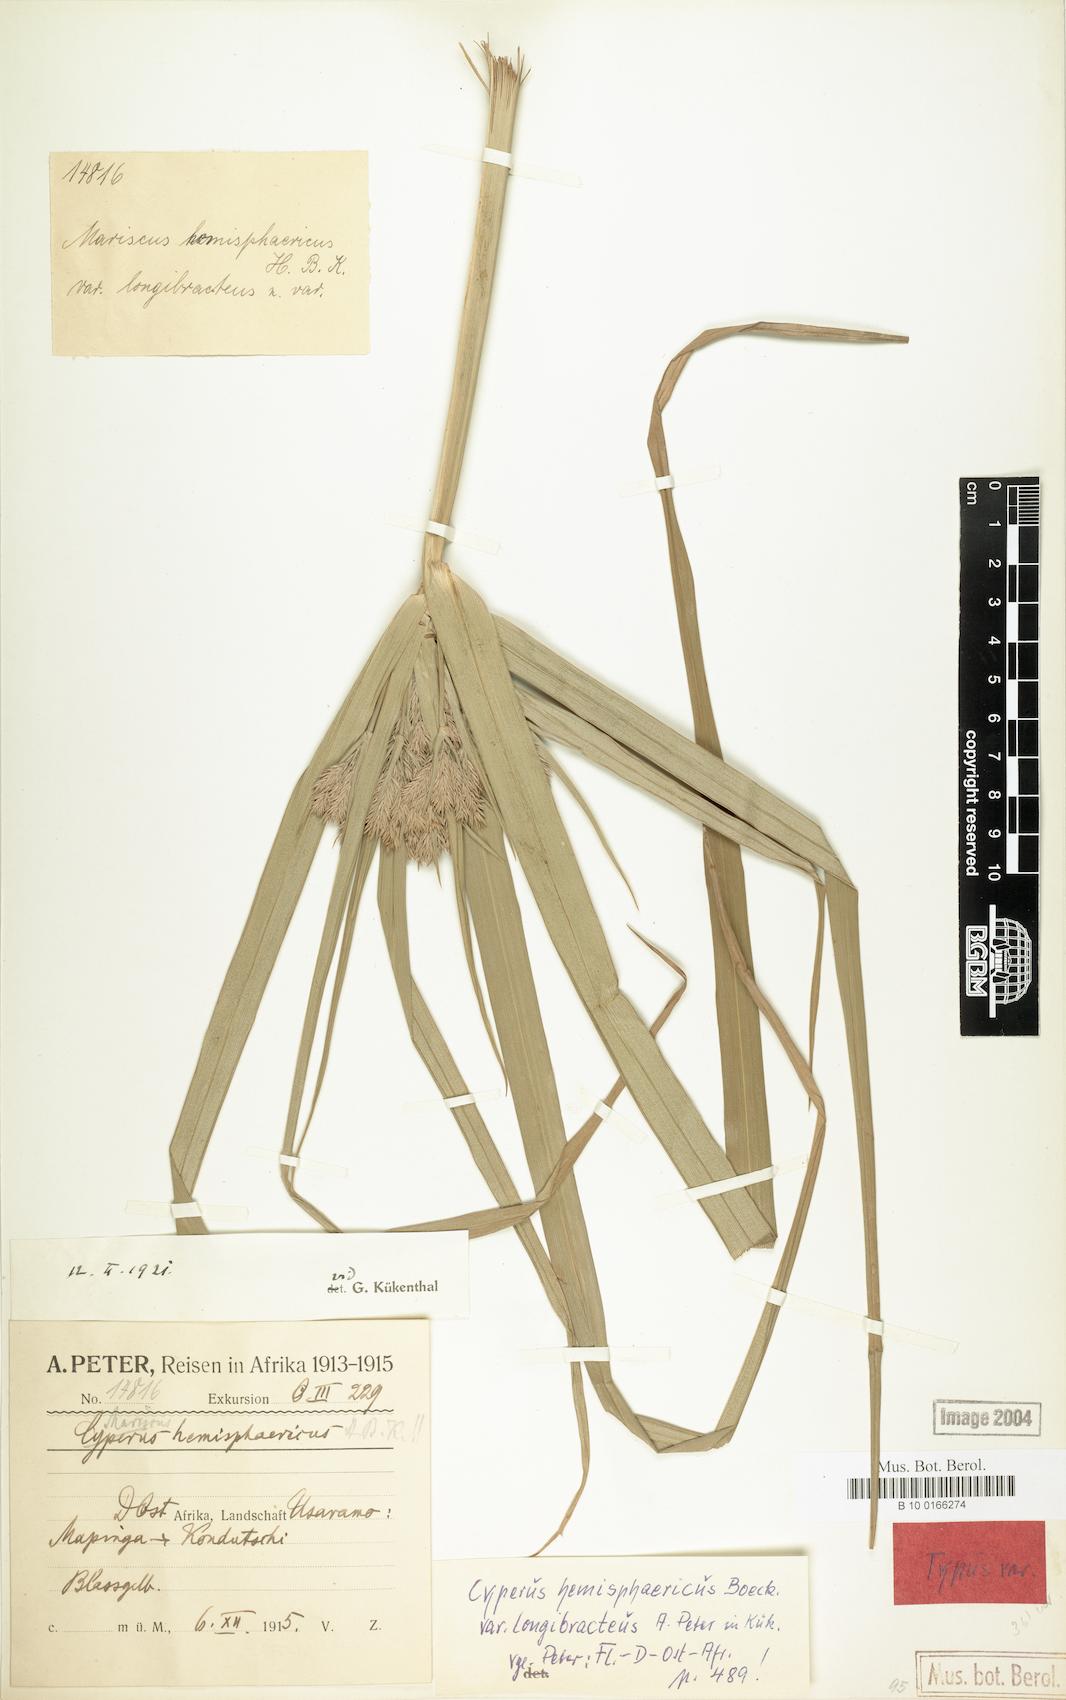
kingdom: Plantae
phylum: Tracheophyta
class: Liliopsida
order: Poales
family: Cyperaceae
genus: Cyperus
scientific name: Cyperus hemisphaericus
